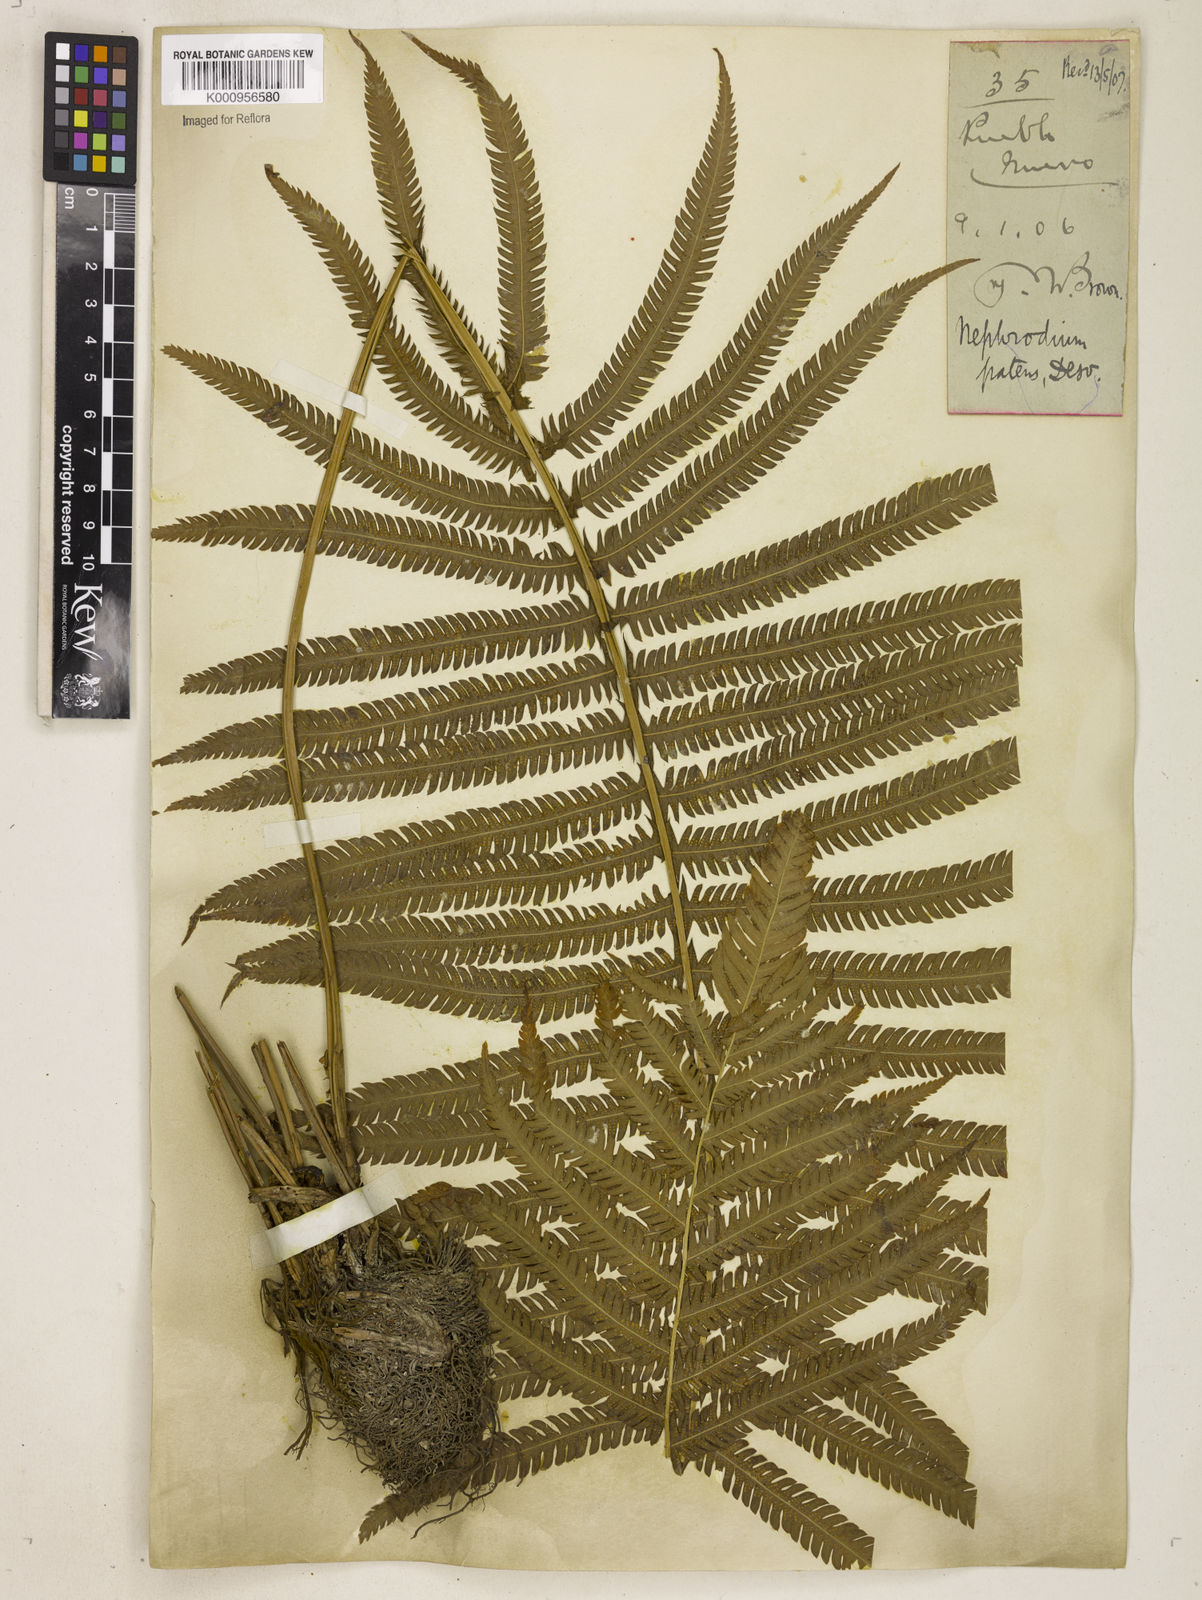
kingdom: Plantae
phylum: Tracheophyta
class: Polypodiopsida
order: Polypodiales
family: Thelypteridaceae
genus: Pelazoneuron
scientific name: Pelazoneuron patens
